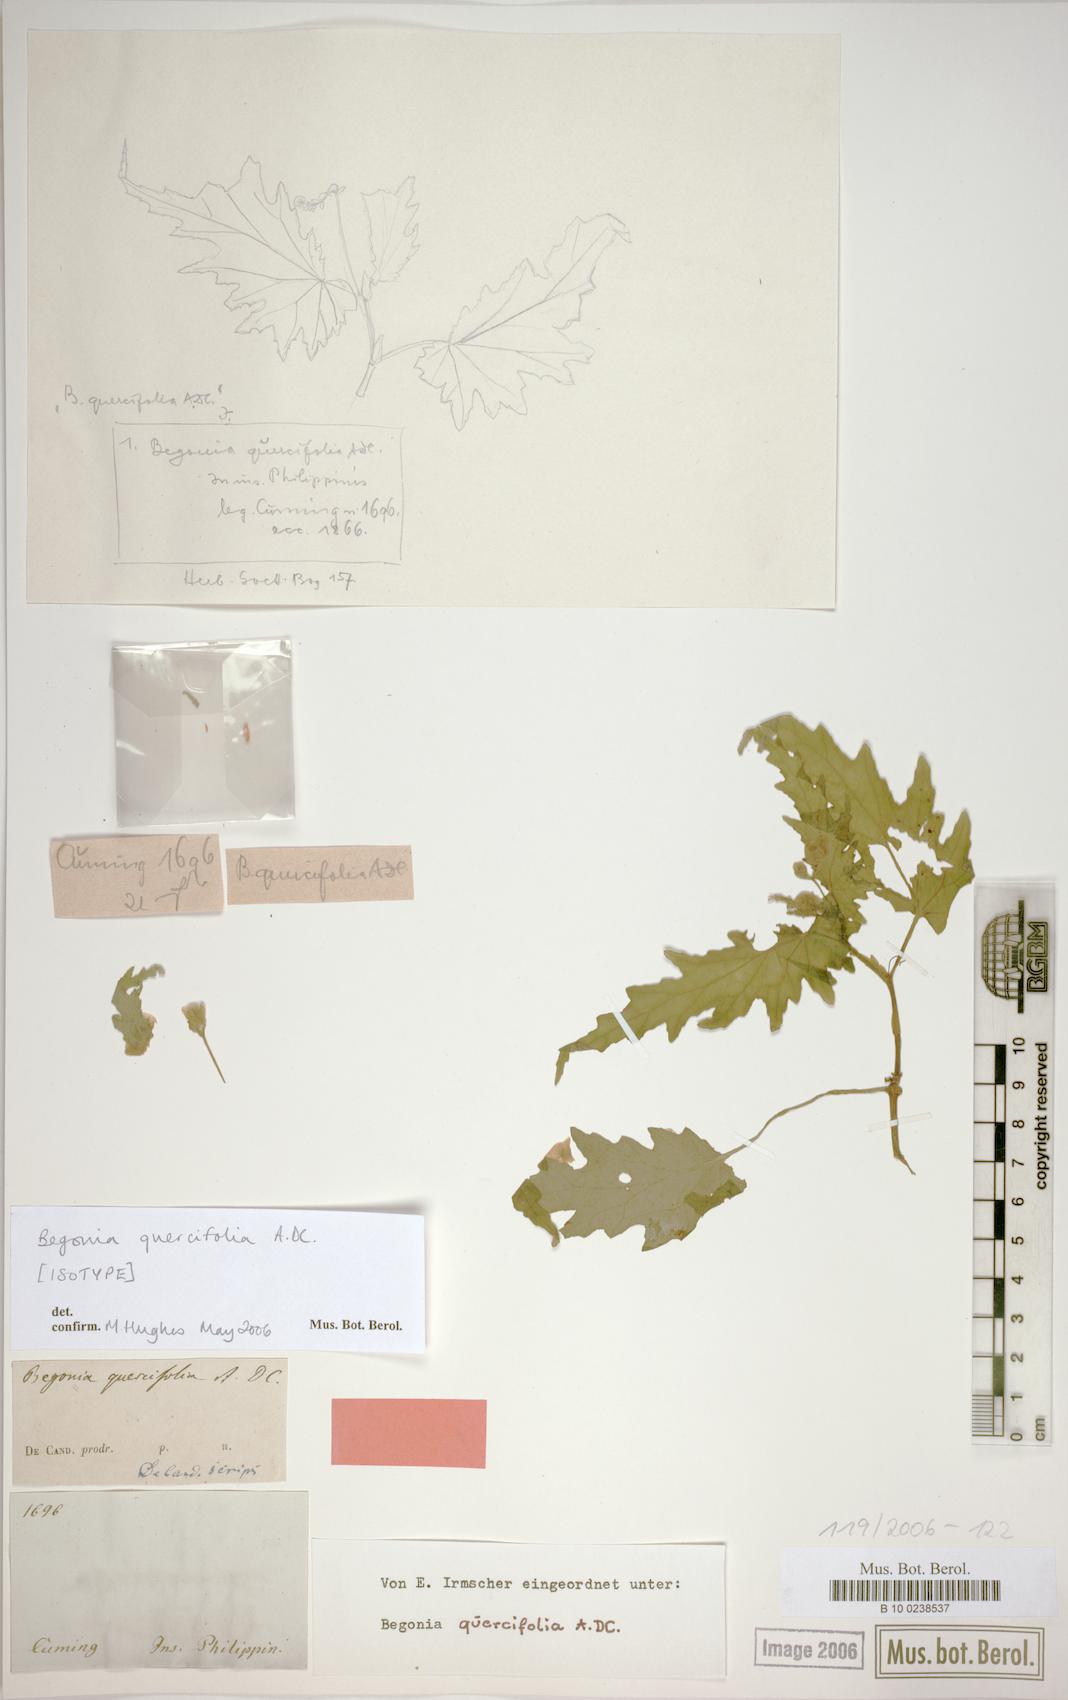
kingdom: Plantae
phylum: Tracheophyta
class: Magnoliopsida
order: Cucurbitales
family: Begoniaceae
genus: Begonia
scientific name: Begonia quercifolia
